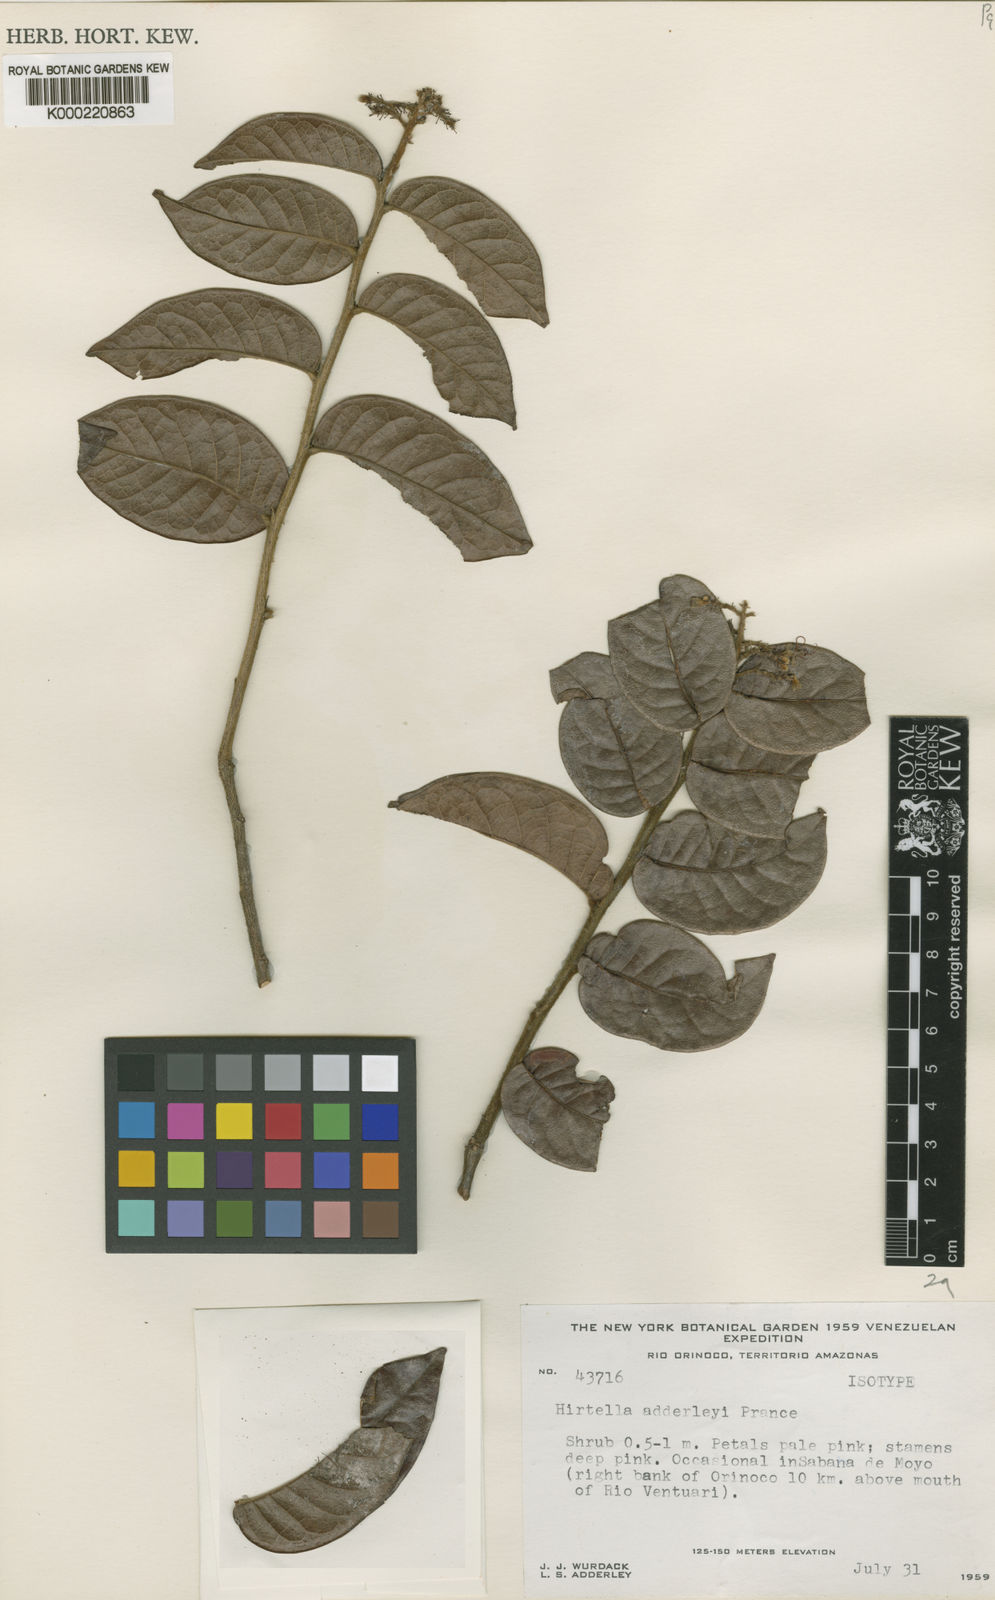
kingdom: Plantae
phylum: Tracheophyta
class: Magnoliopsida
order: Malpighiales
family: Chrysobalanaceae
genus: Hirtella
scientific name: Hirtella adderleyi
